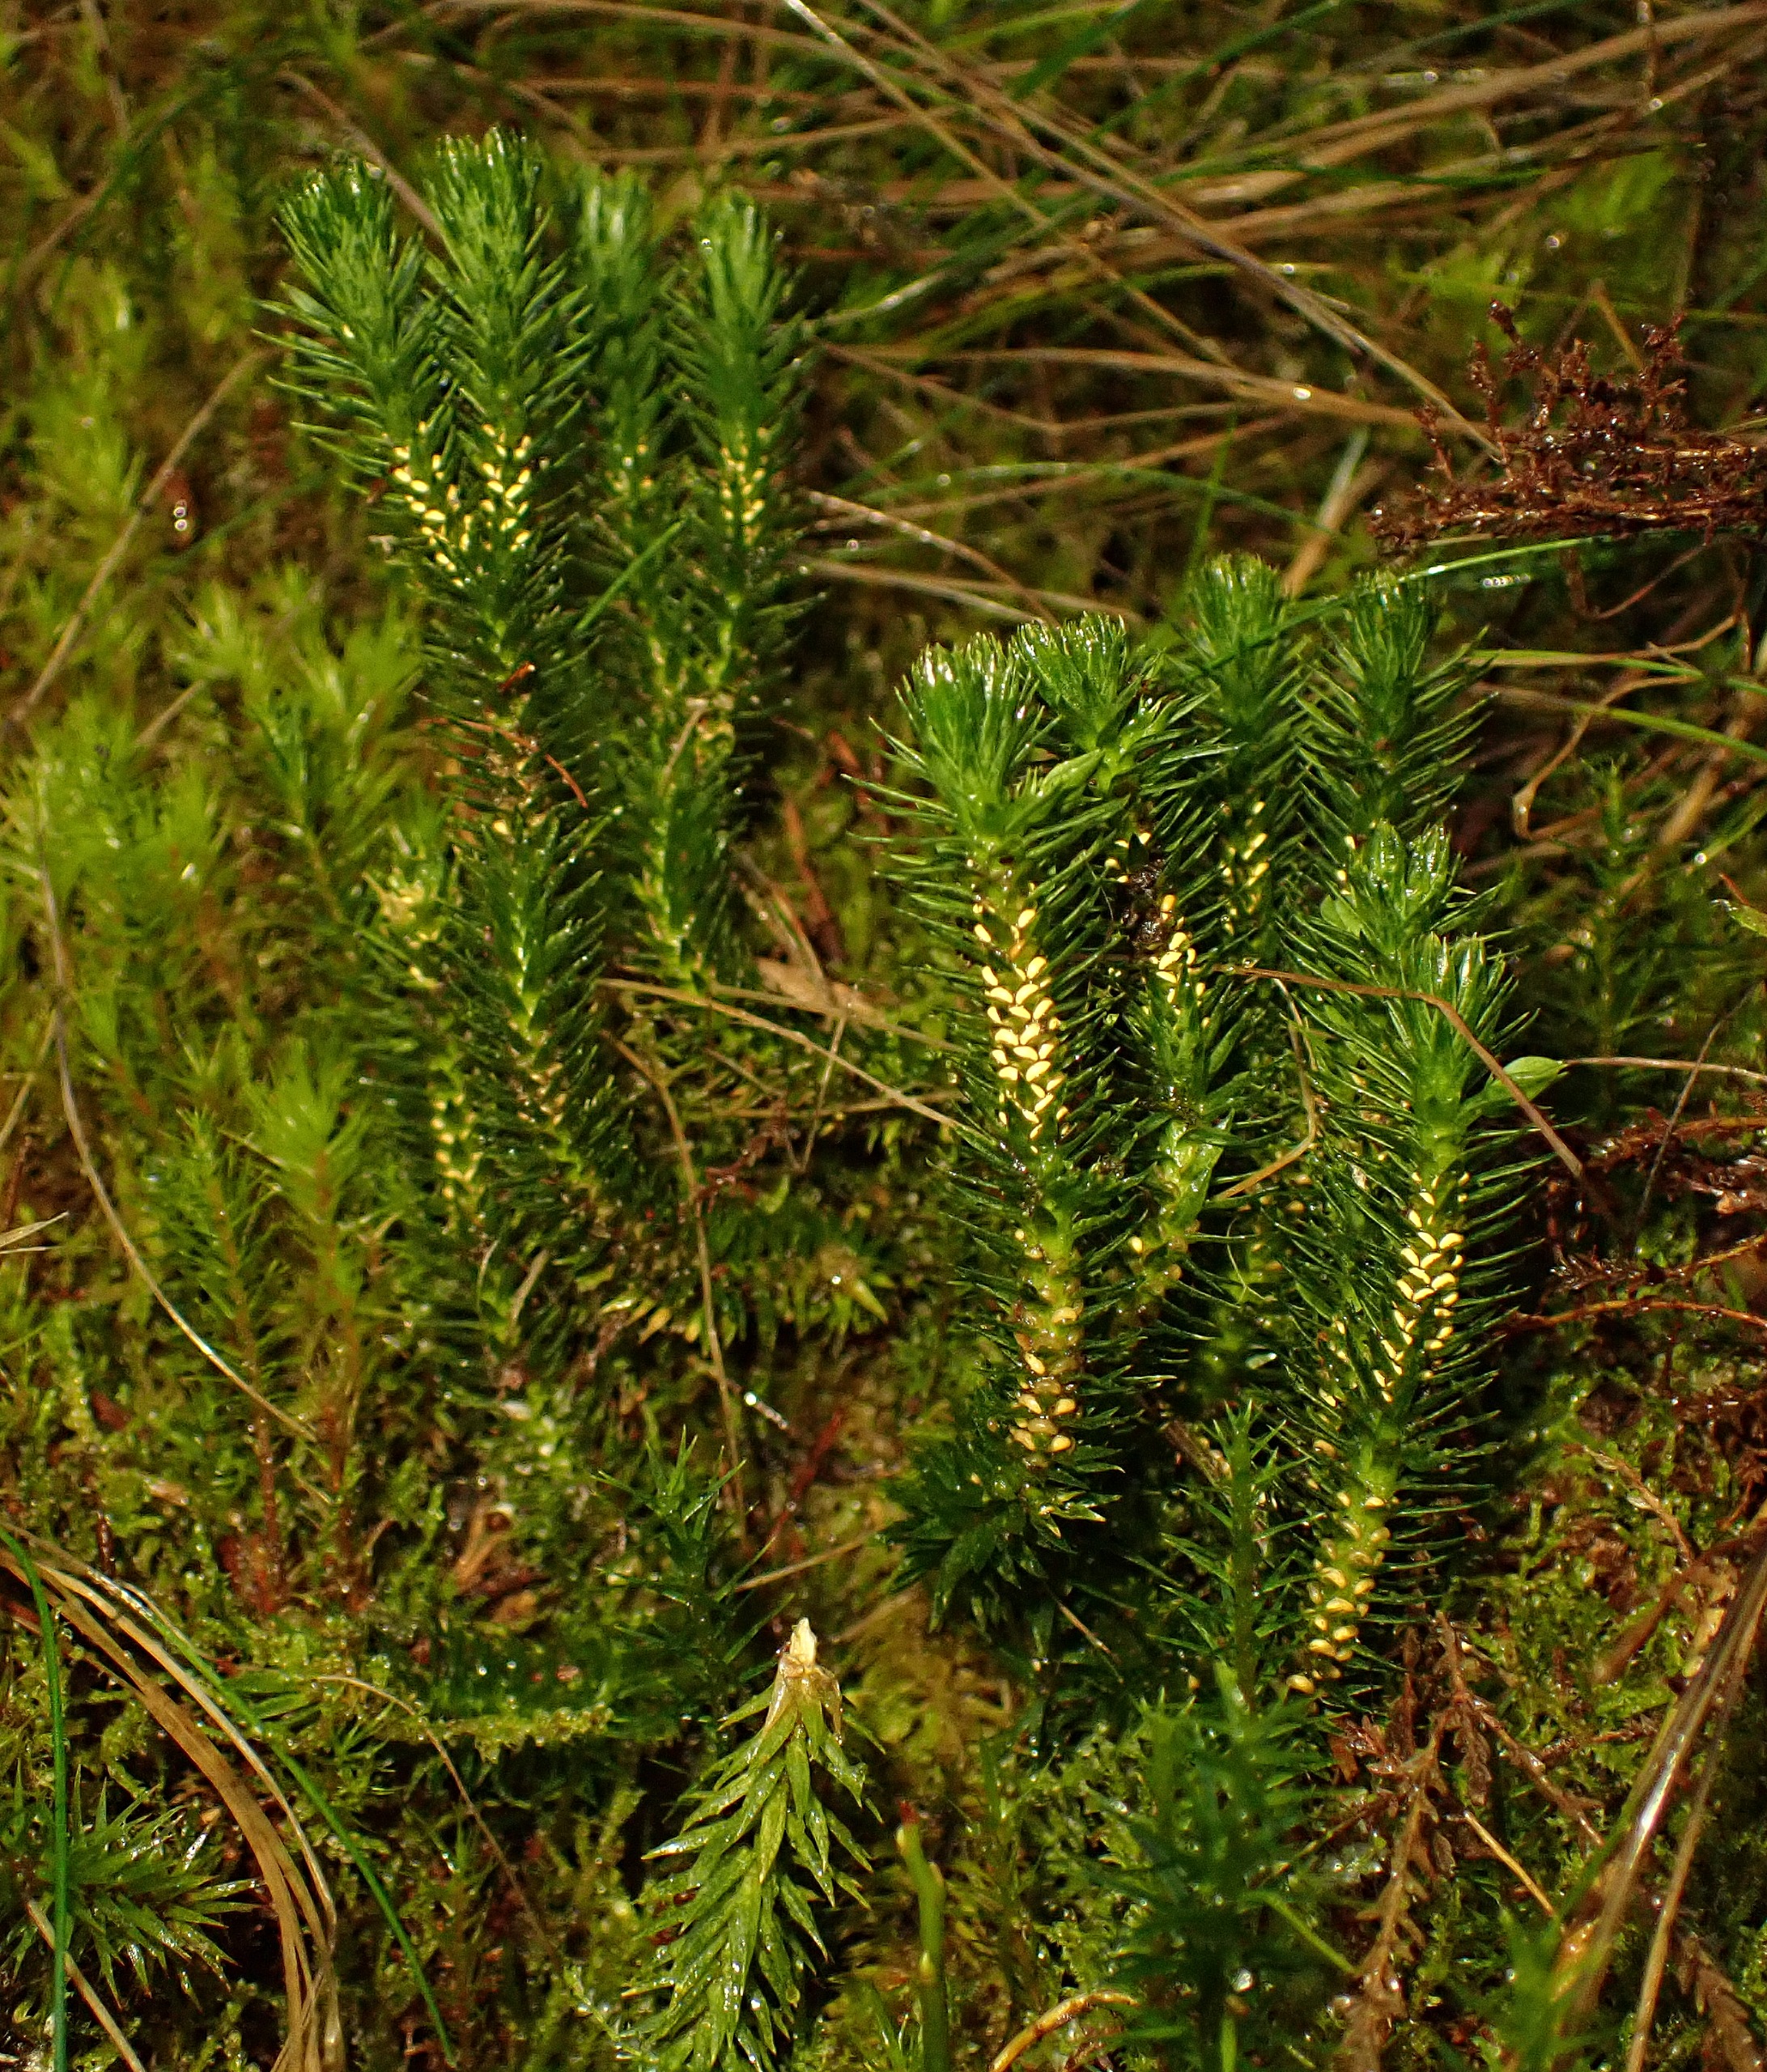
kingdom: Plantae
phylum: Tracheophyta
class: Lycopodiopsida
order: Lycopodiales
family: Lycopodiaceae
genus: Huperzia
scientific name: Huperzia selago
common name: Otteradet ulvefod
